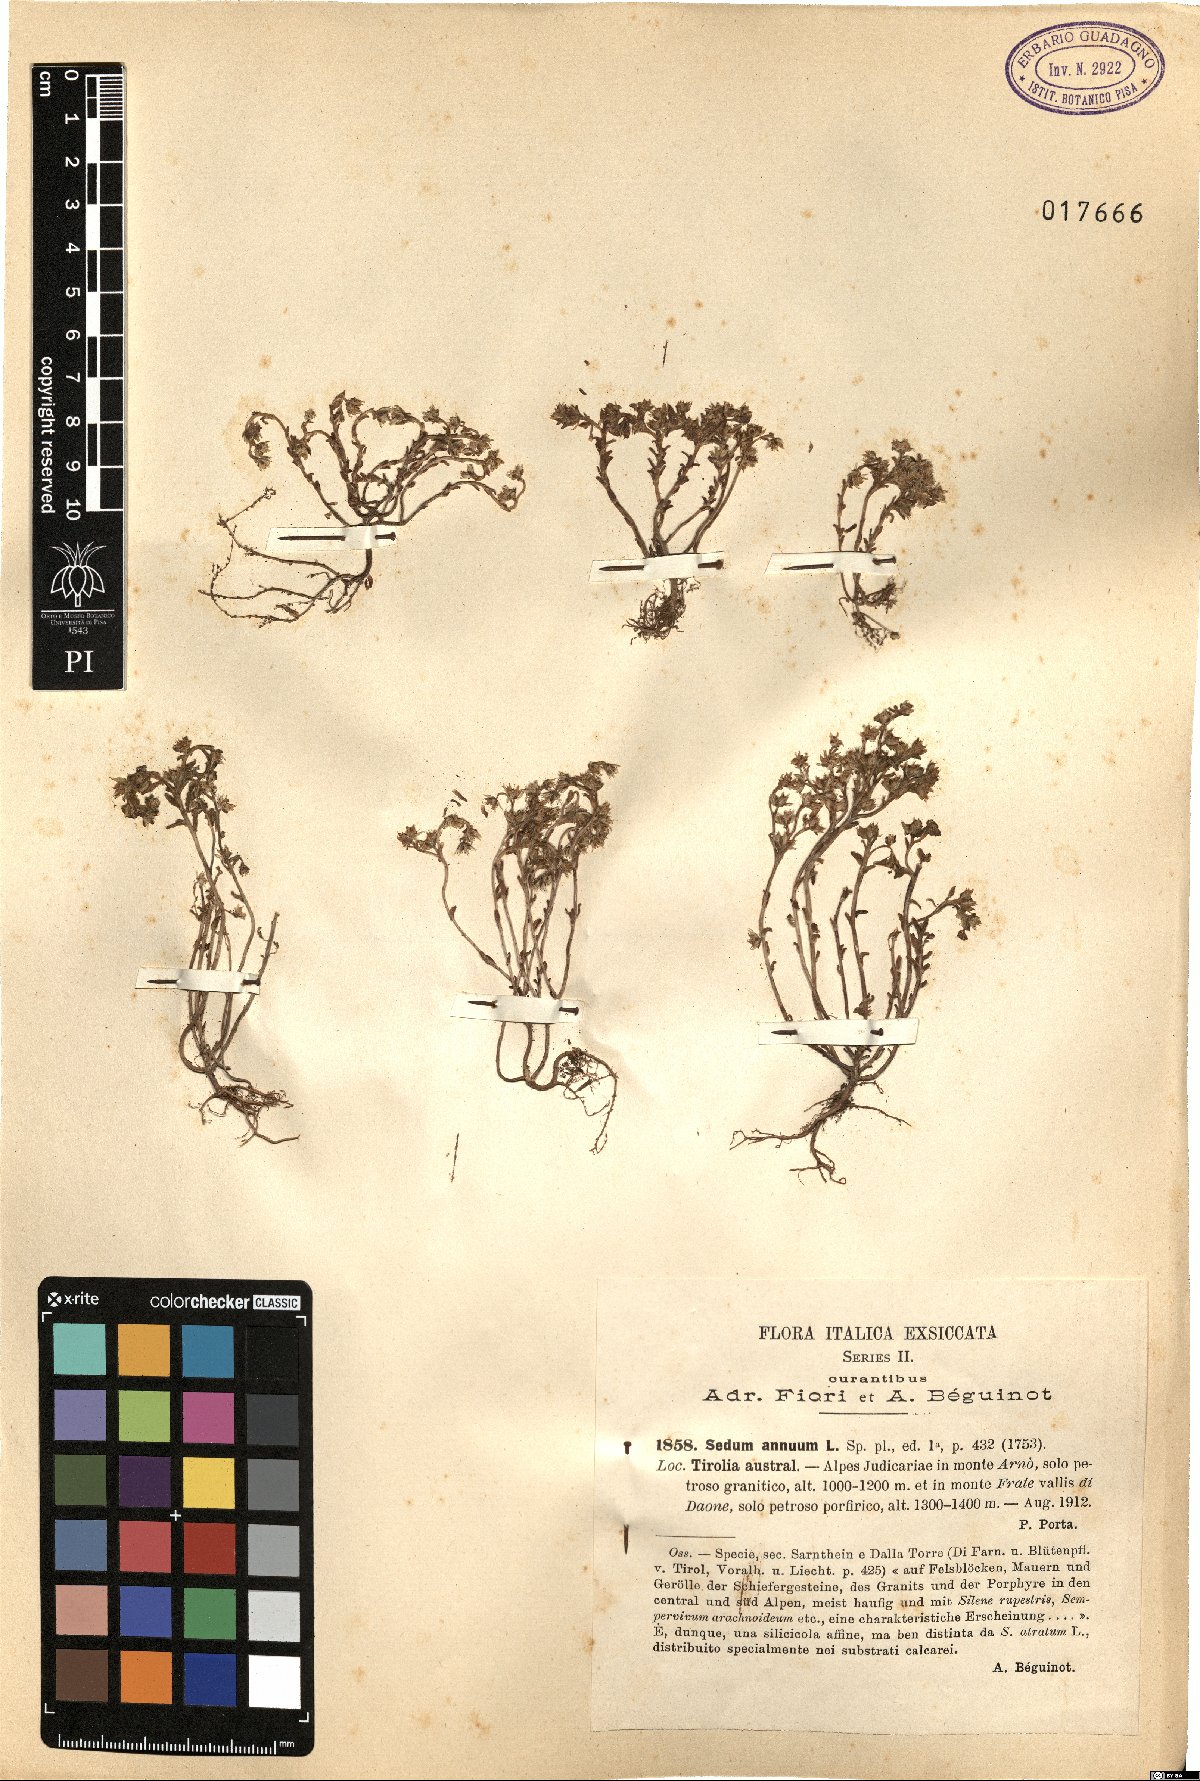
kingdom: Plantae
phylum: Tracheophyta
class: Magnoliopsida
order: Saxifragales
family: Crassulaceae
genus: Sedum
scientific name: Sedum annuum
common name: Annual stonecrop
